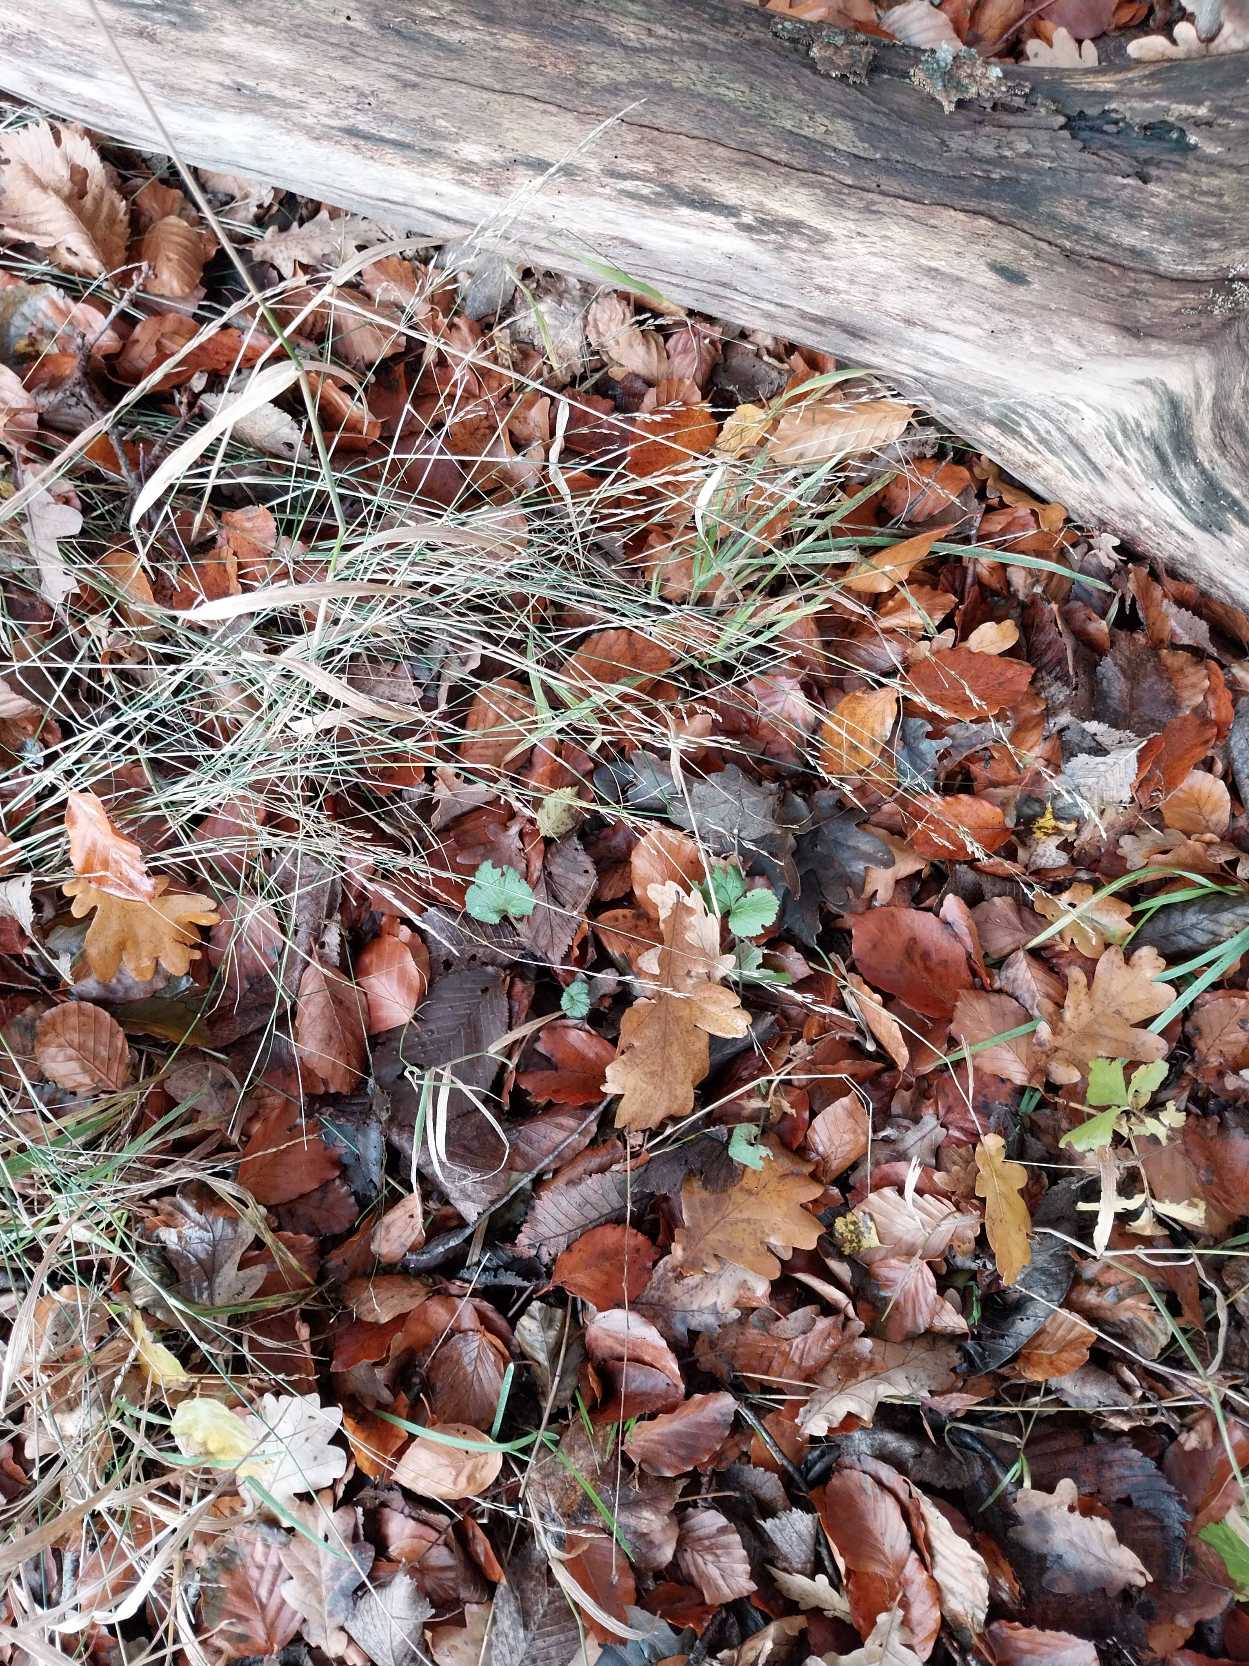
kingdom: Plantae
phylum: Tracheophyta
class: Liliopsida
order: Poales
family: Poaceae
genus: Poa
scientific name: Poa nemoralis
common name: Lund-rapgræs
